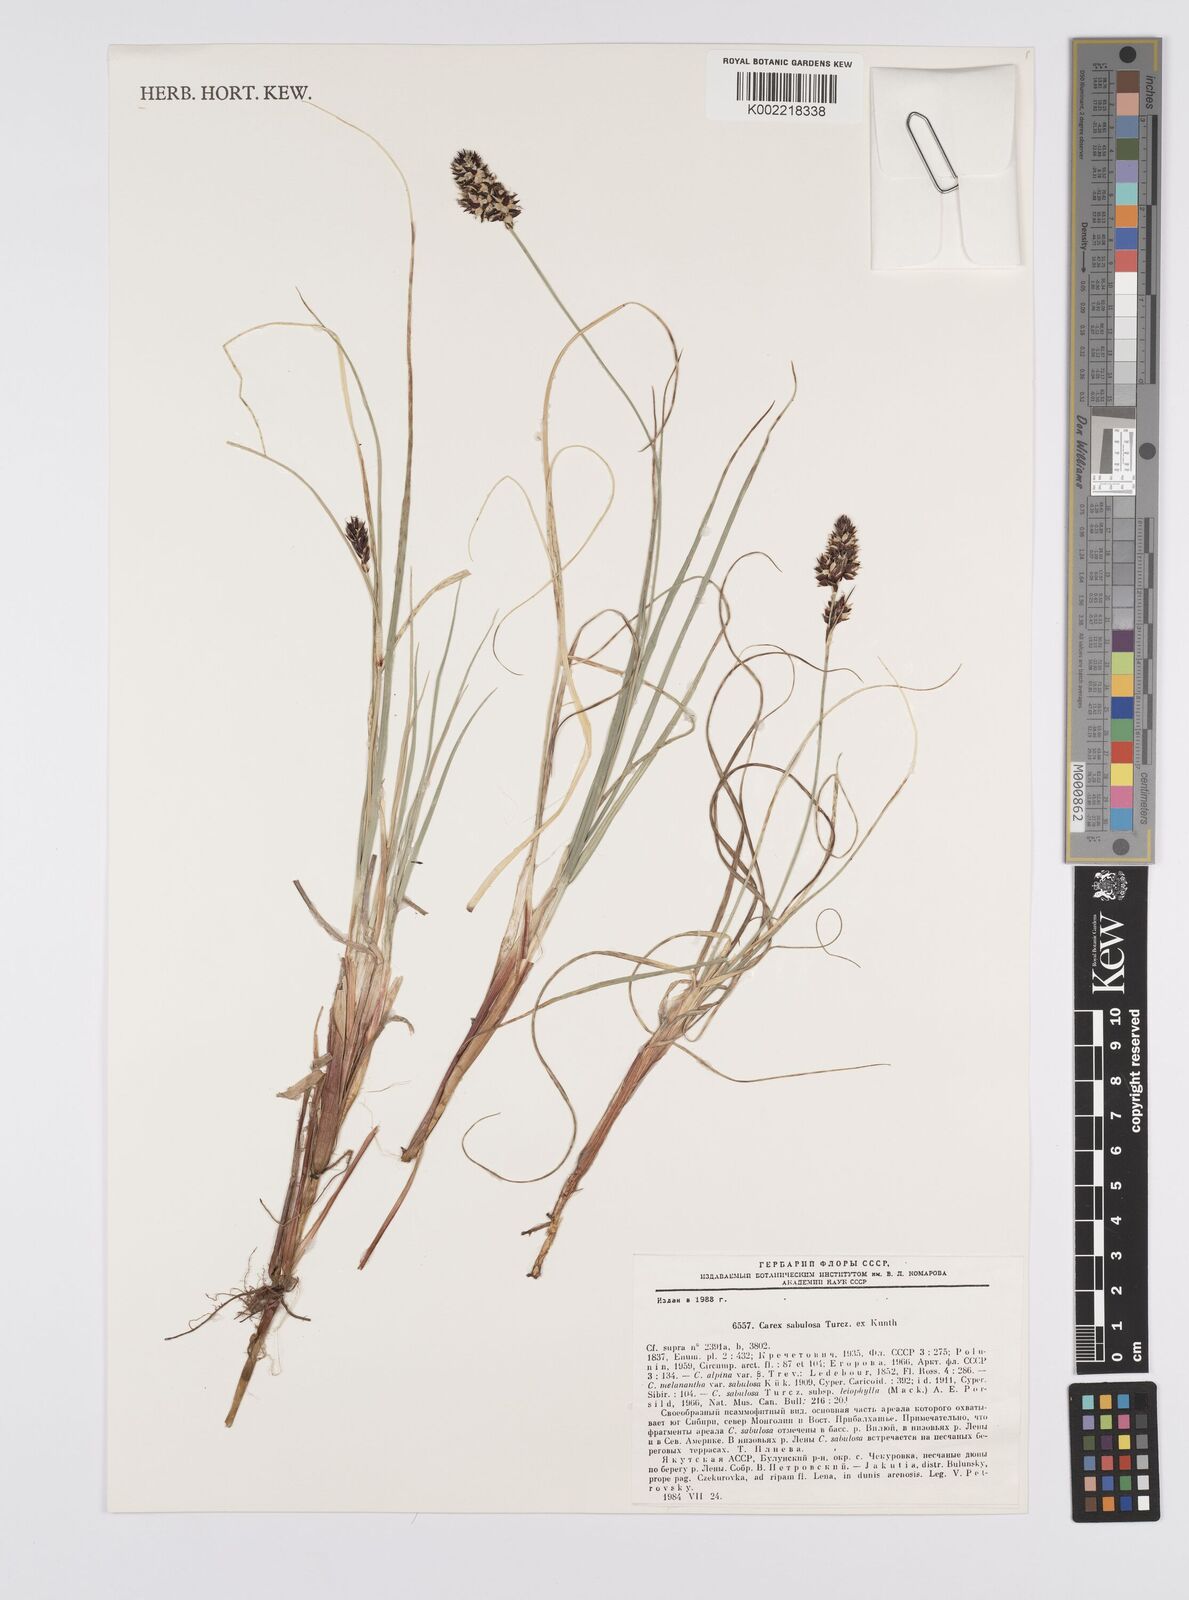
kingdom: Plantae
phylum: Tracheophyta
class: Liliopsida
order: Poales
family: Cyperaceae
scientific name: Cyperaceae
